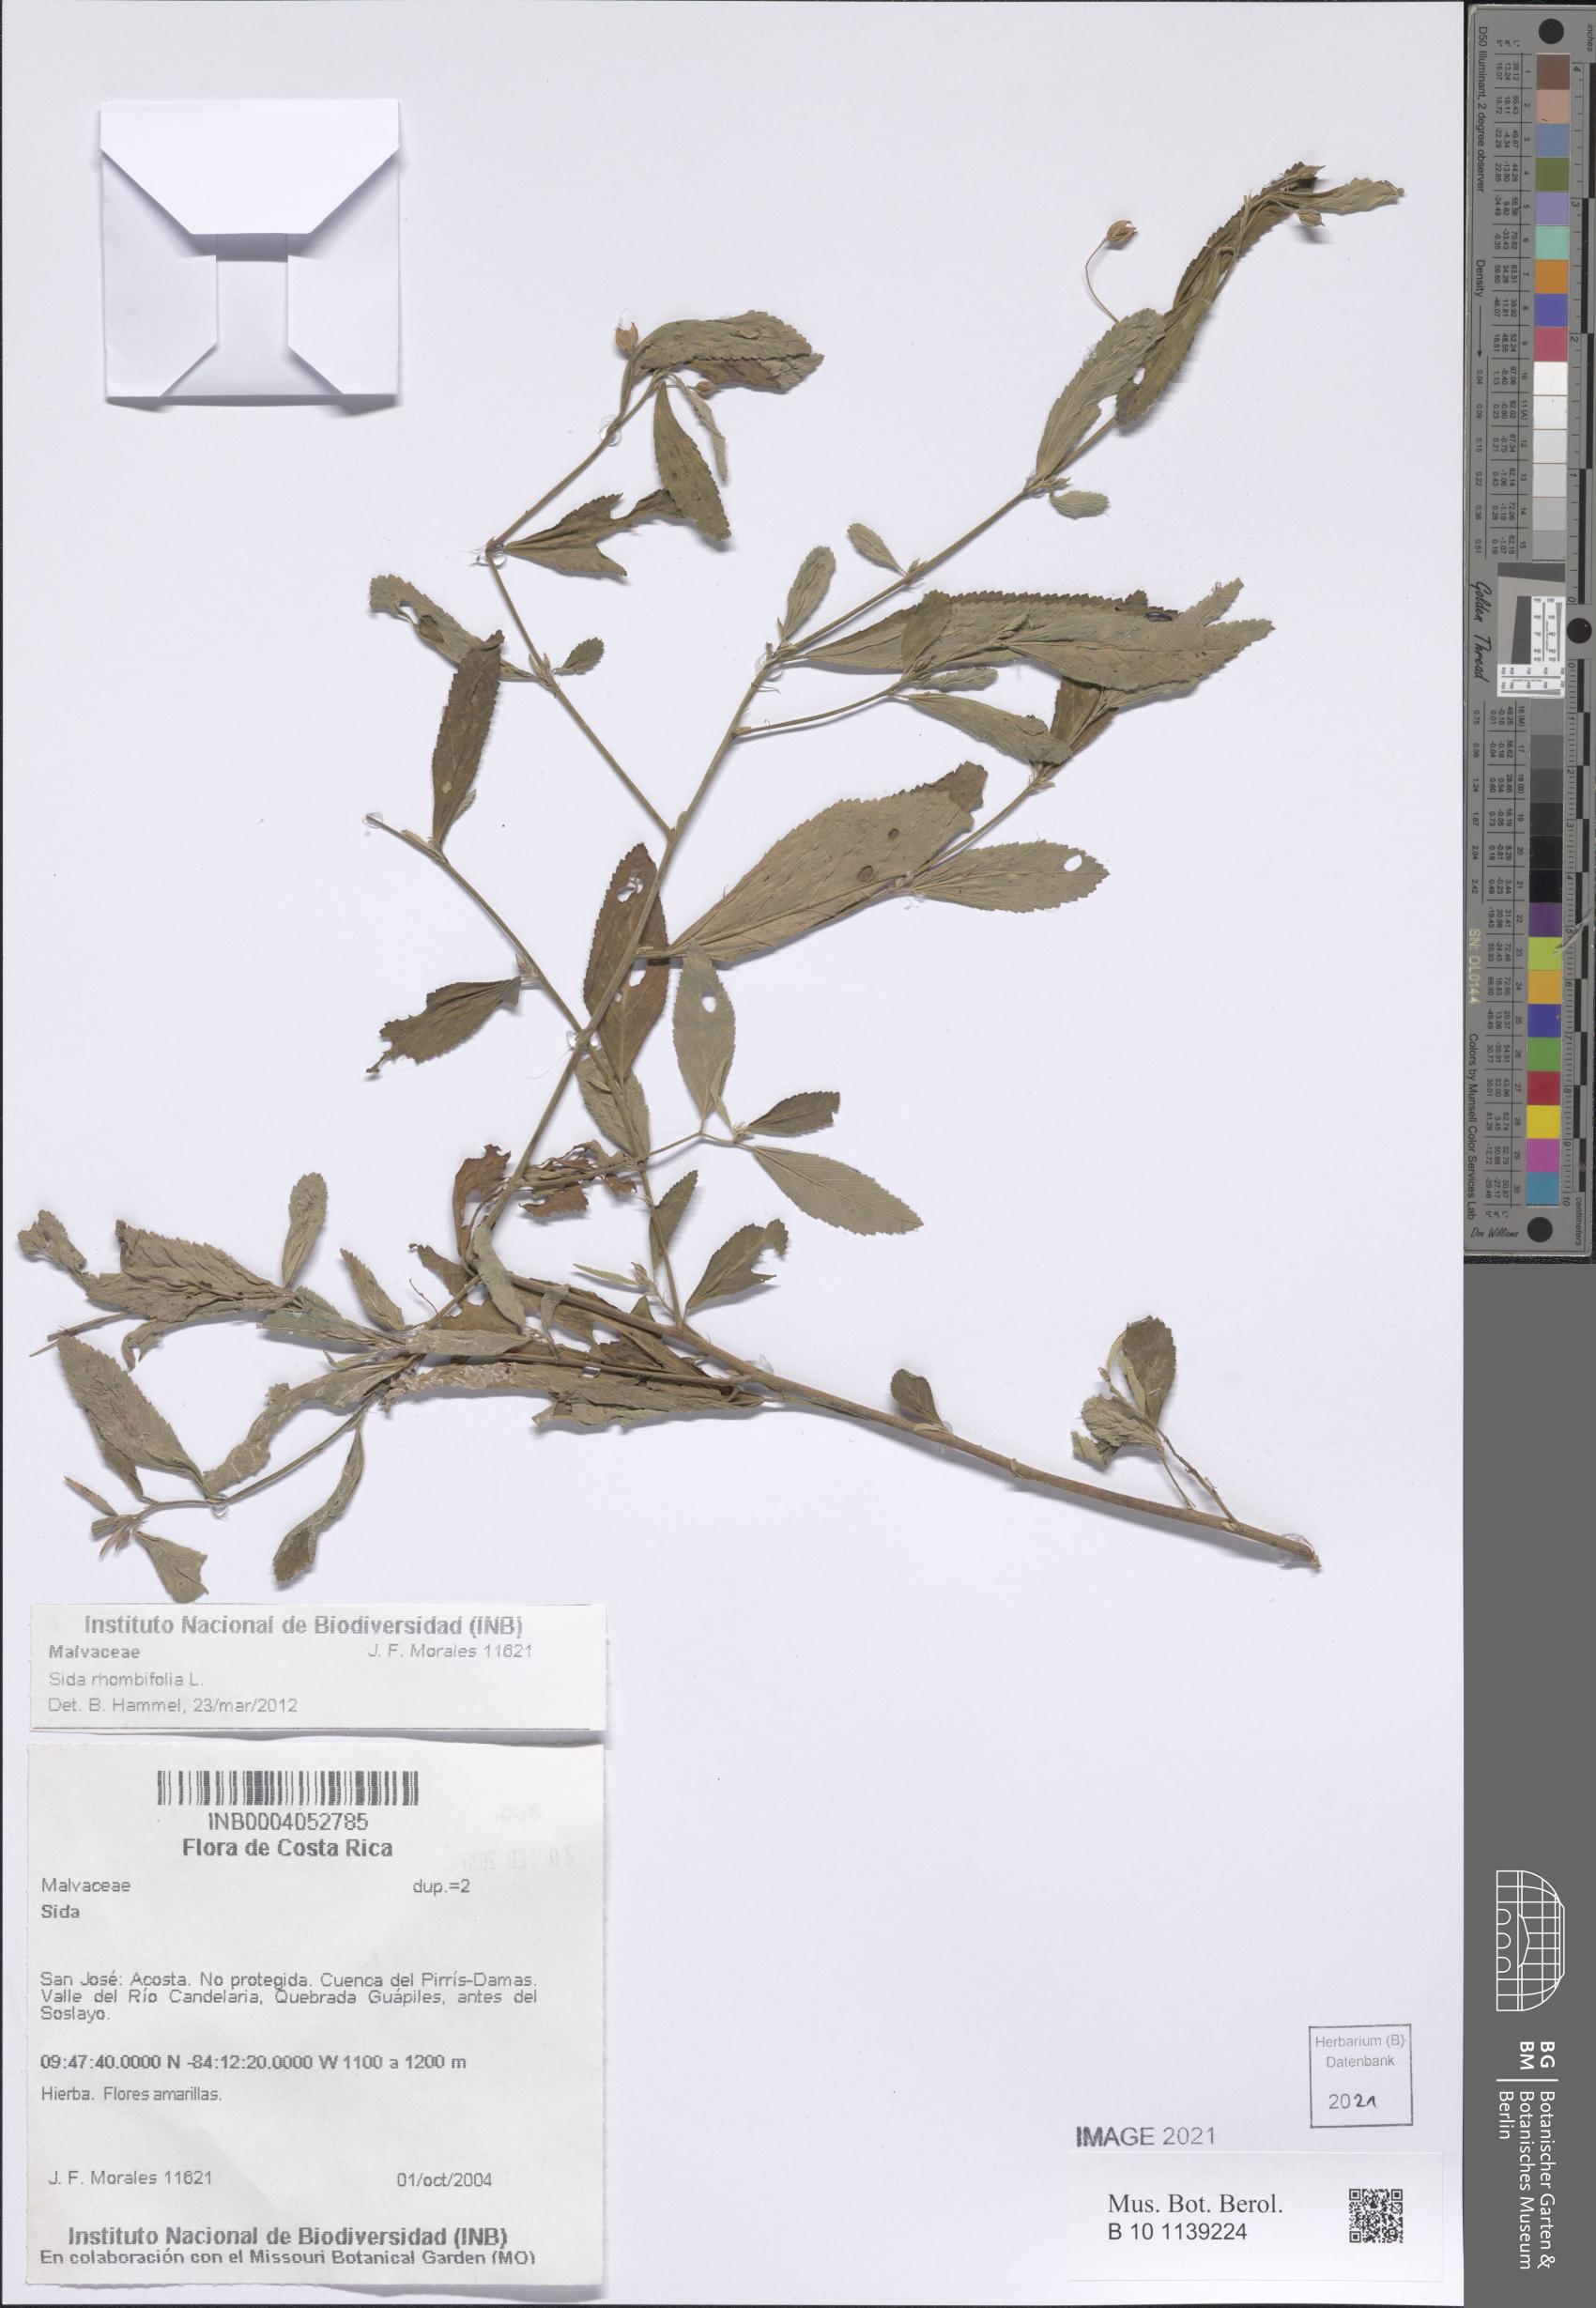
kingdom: Plantae
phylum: Tracheophyta
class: Magnoliopsida
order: Malvales
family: Malvaceae
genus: Sida
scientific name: Sida rhombifolia
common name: Queensland-hemp
